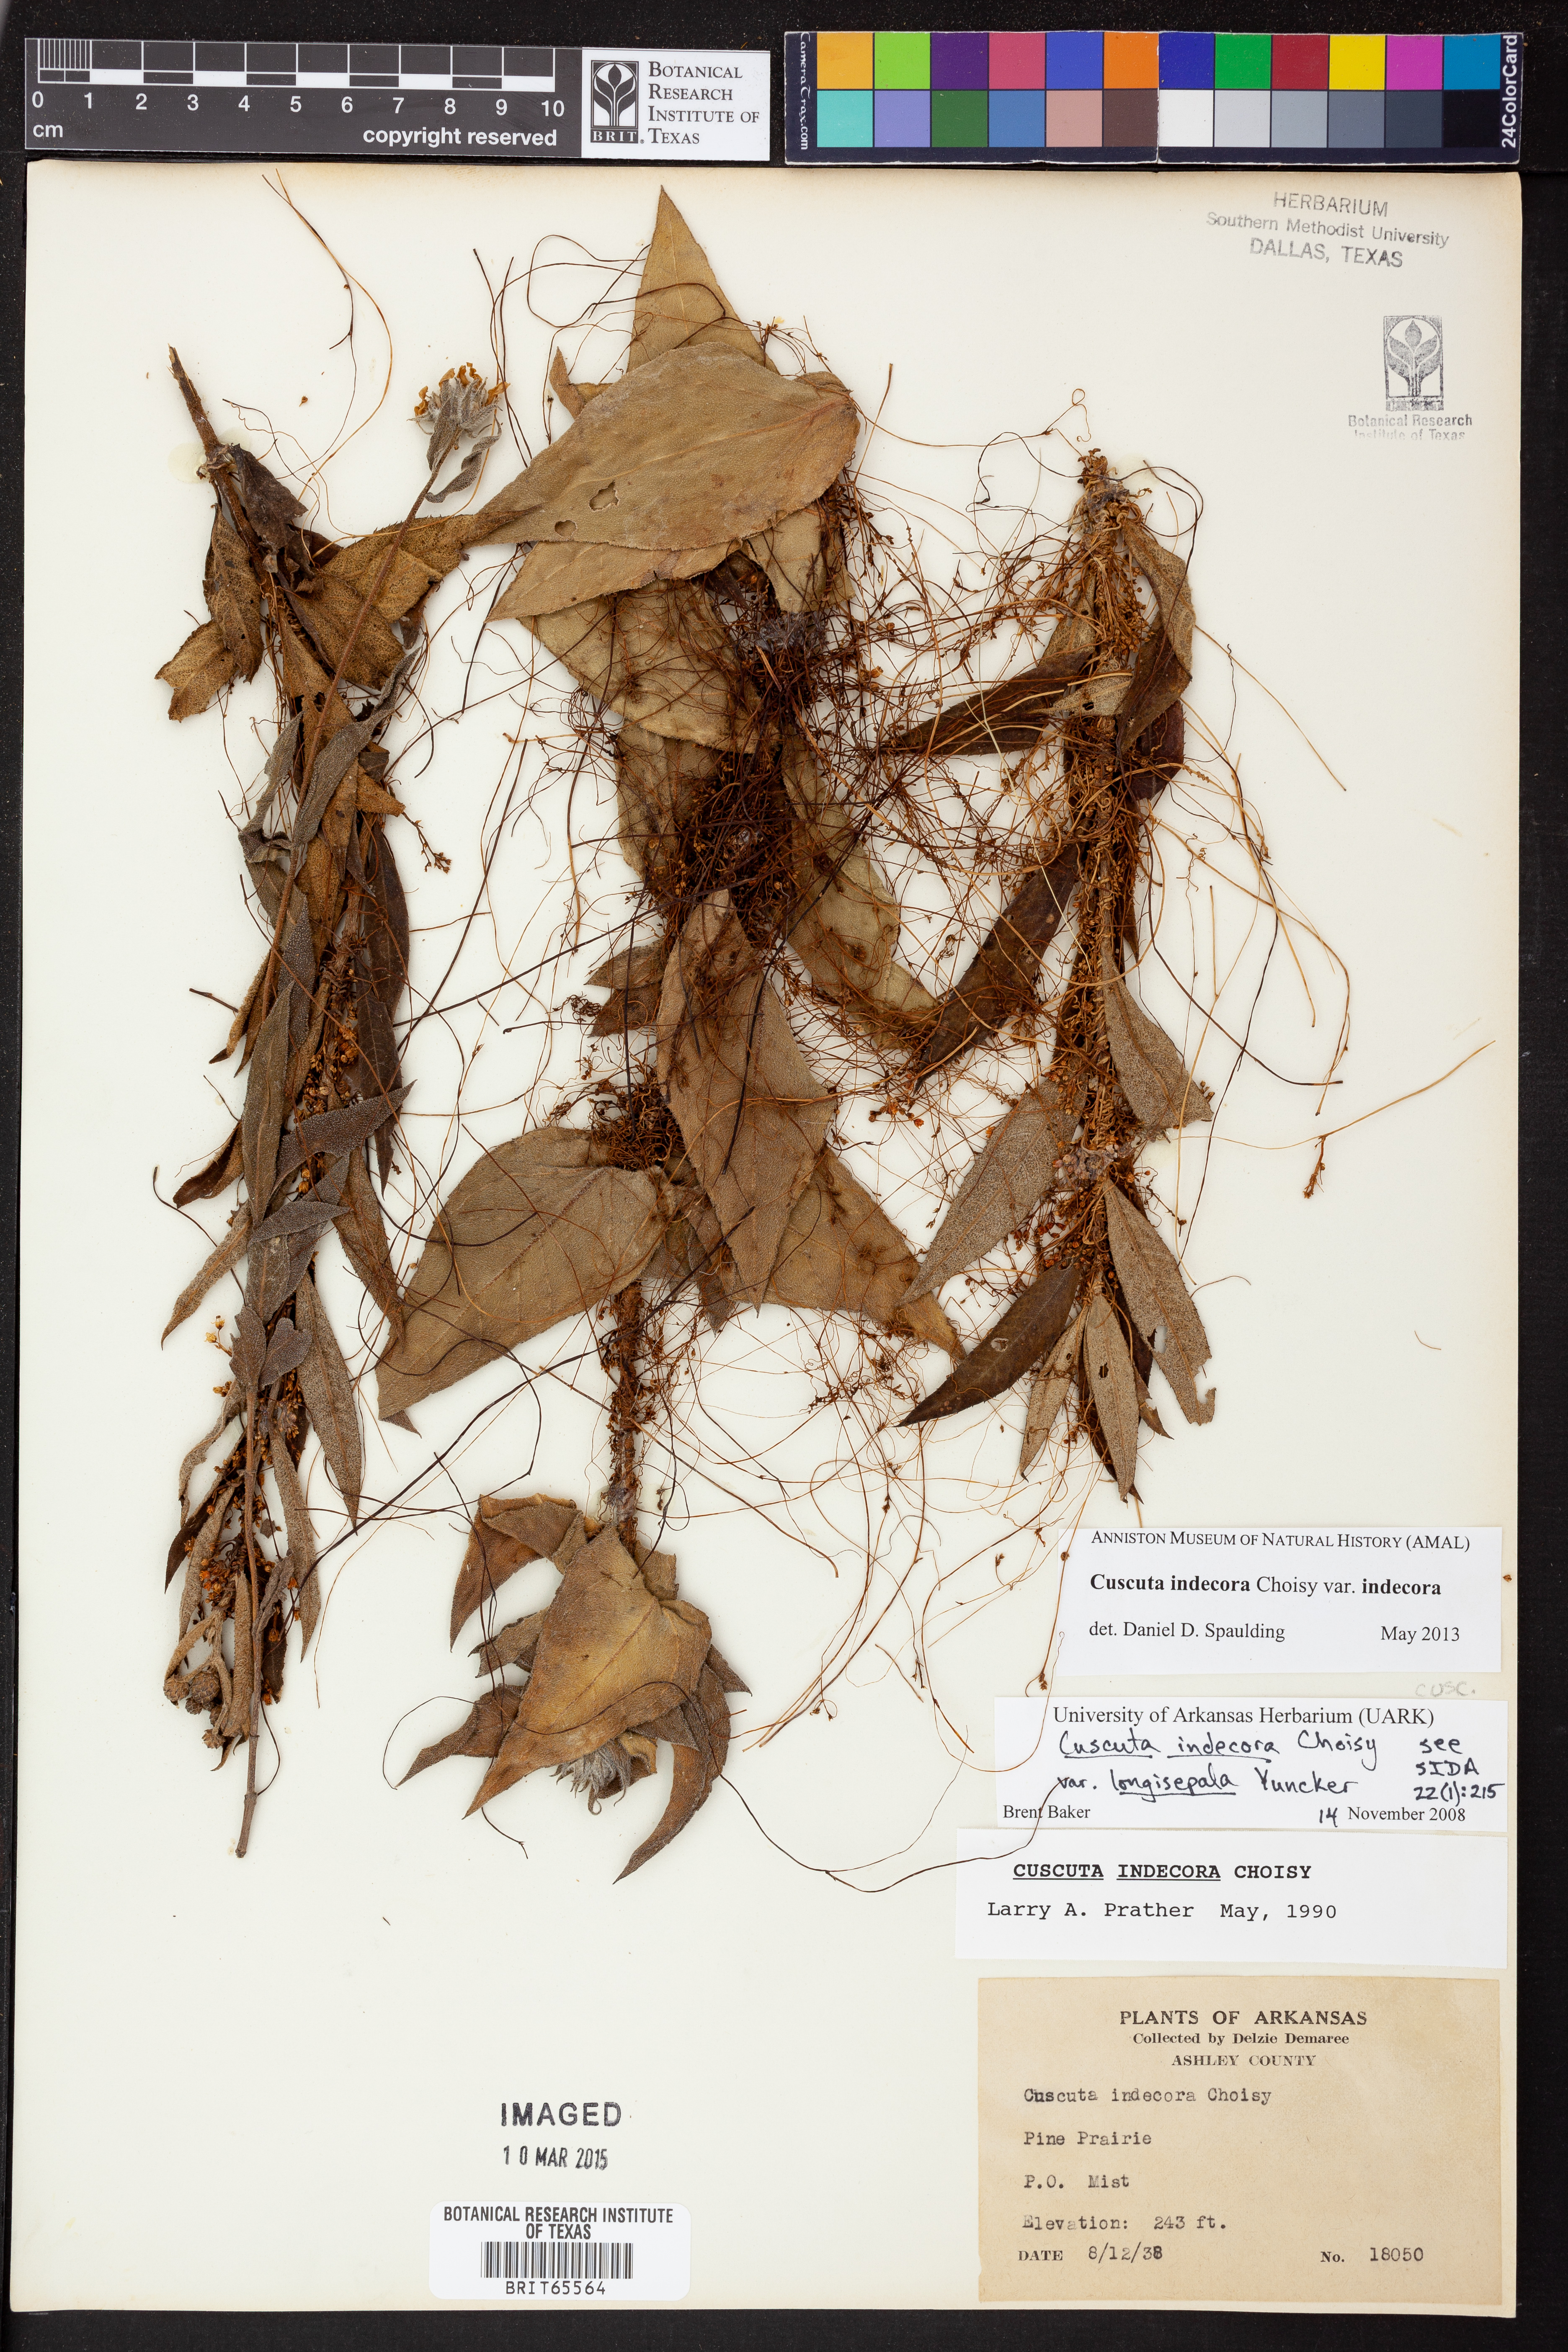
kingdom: Plantae
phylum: Tracheophyta
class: Magnoliopsida
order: Solanales
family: Convolvulaceae
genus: Cuscuta
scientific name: Cuscuta indecora
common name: Large-seed dodder
